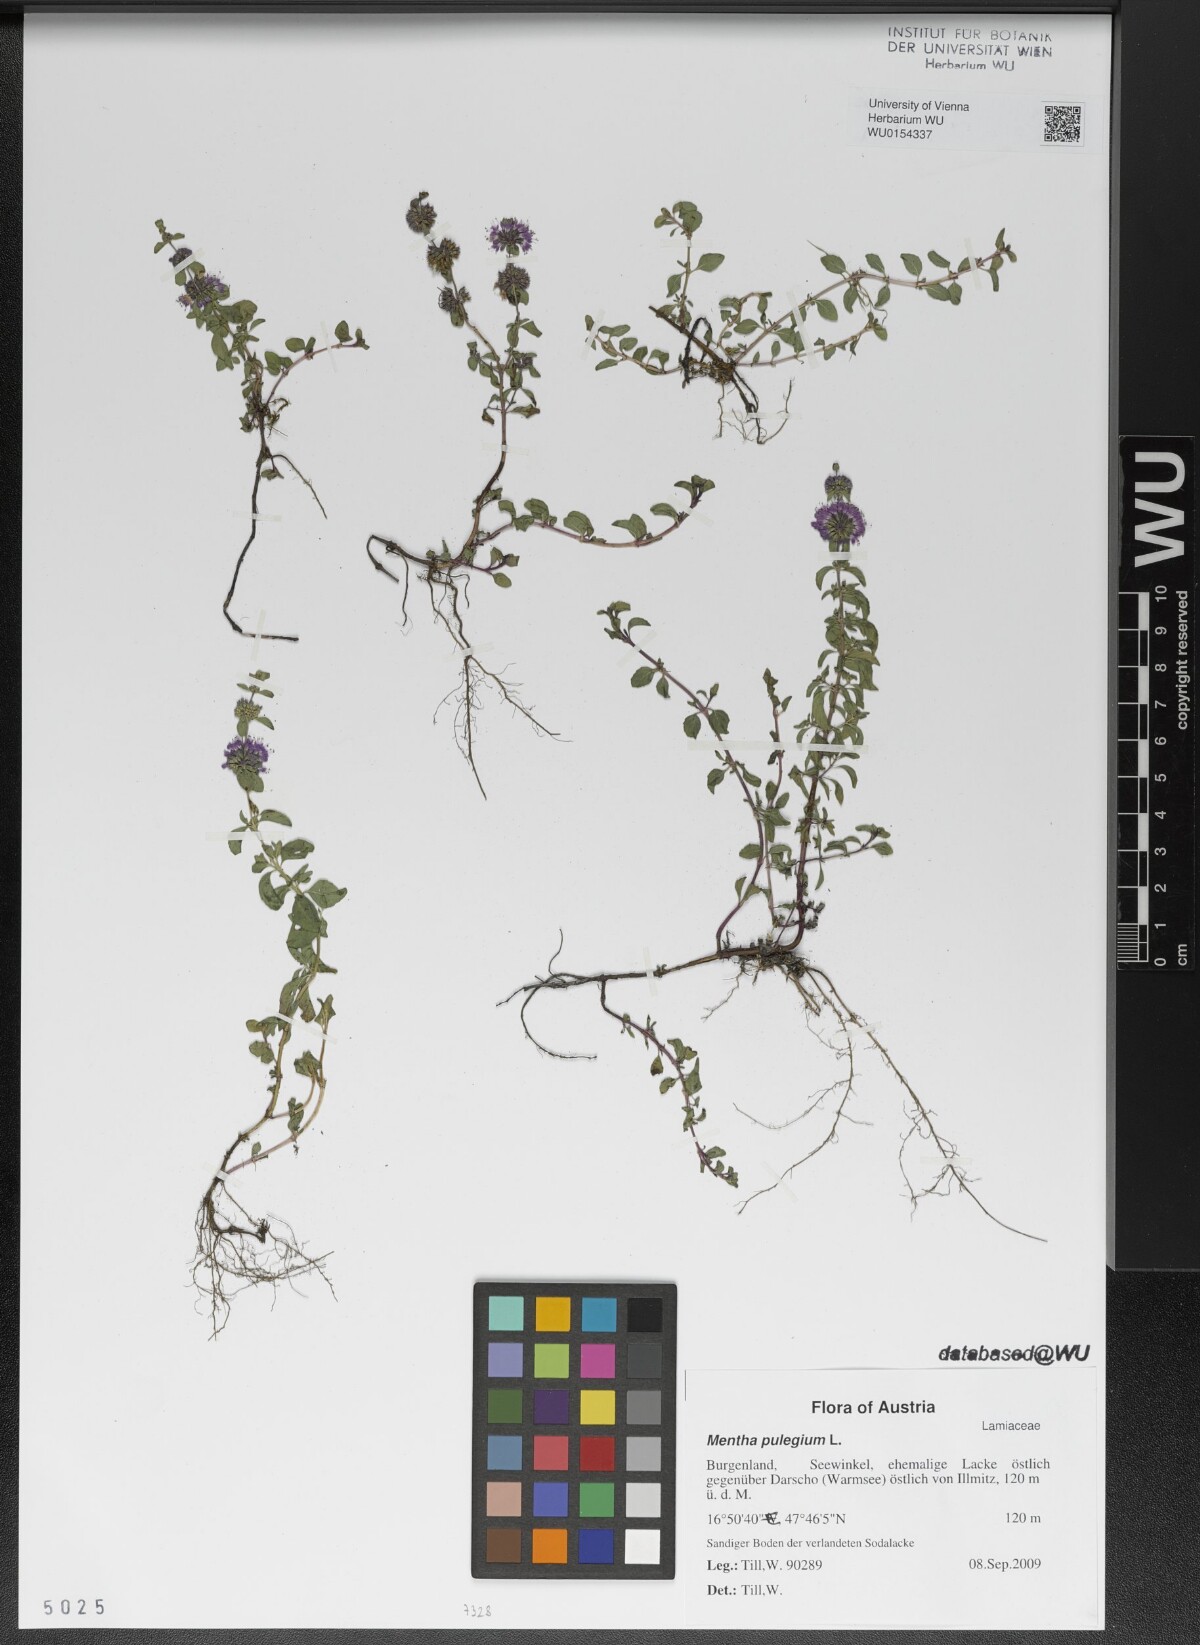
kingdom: Plantae
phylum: Tracheophyta
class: Magnoliopsida
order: Lamiales
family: Lamiaceae
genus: Mentha
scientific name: Mentha pulegium
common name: Pennyroyal
